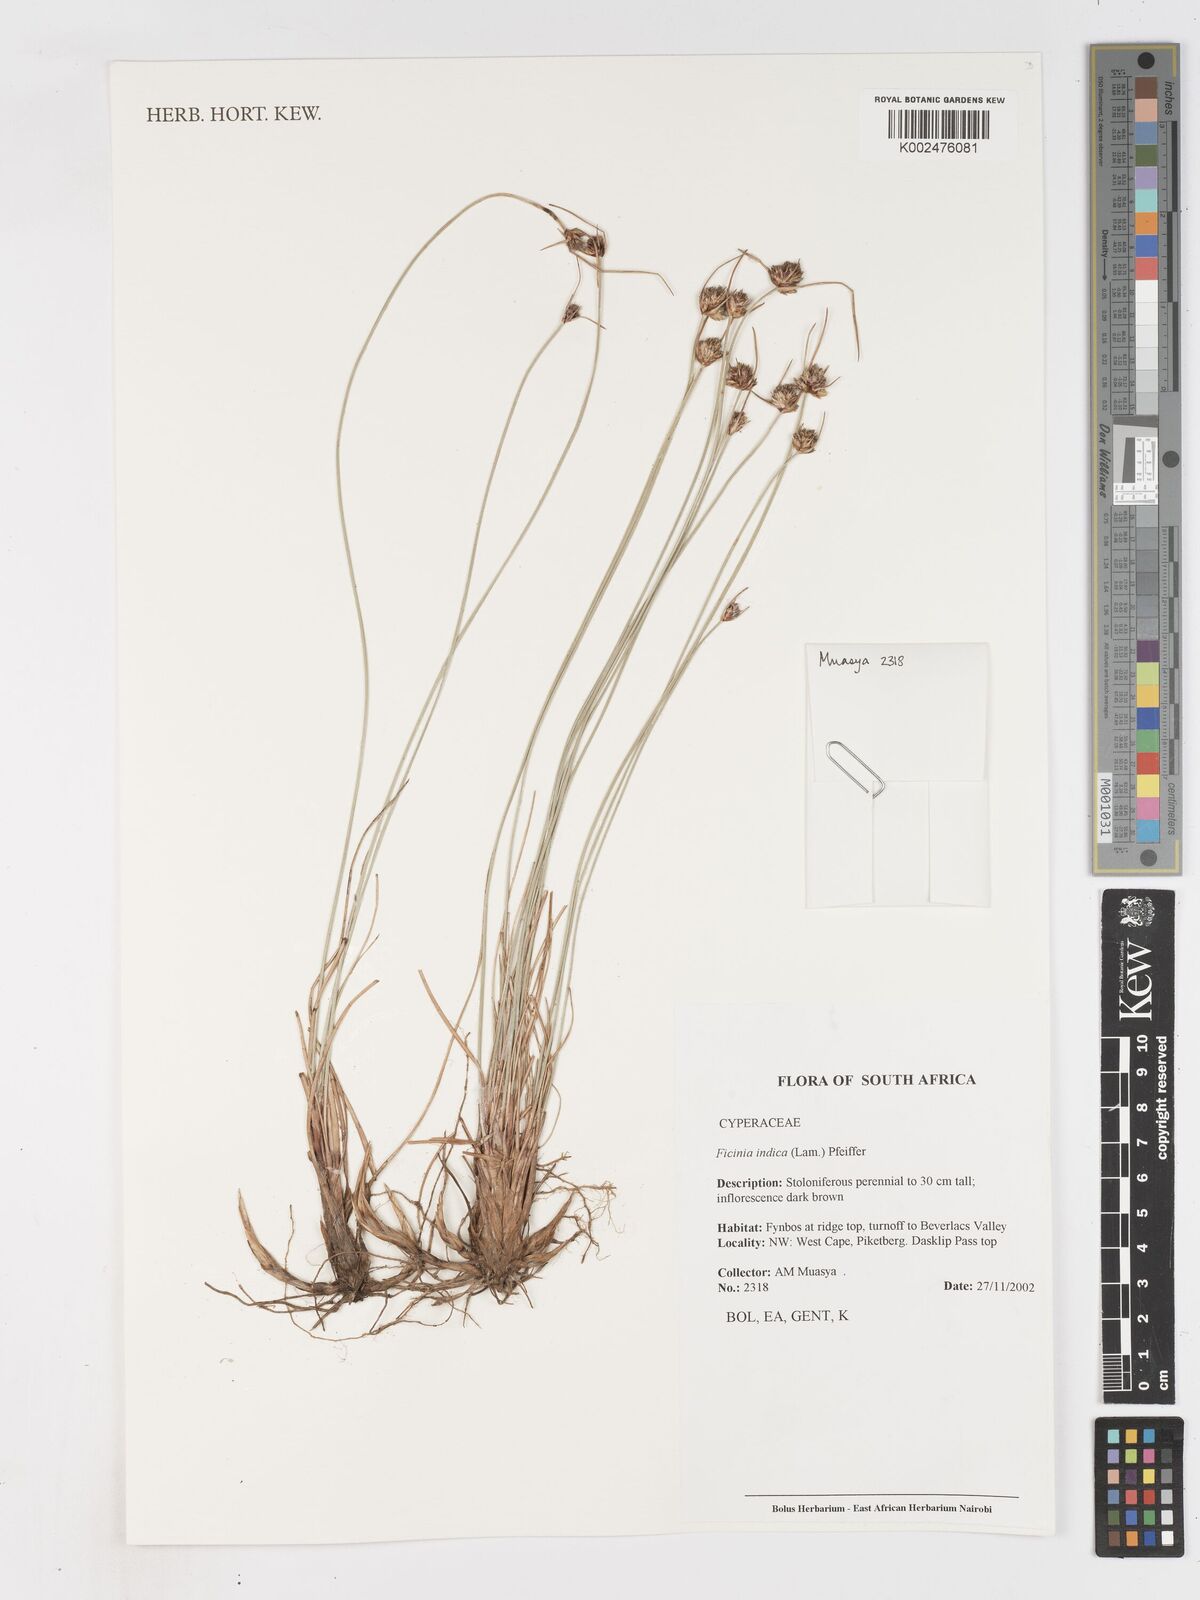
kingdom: Plantae
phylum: Tracheophyta
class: Liliopsida
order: Poales
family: Cyperaceae
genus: Ficinia
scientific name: Ficinia indica
